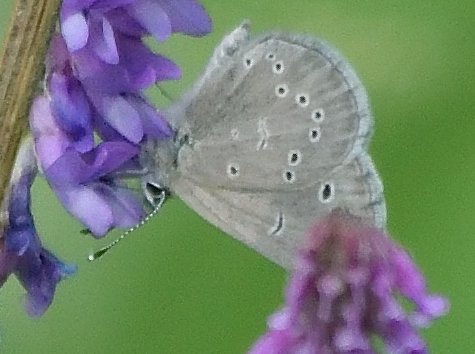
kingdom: Animalia
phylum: Arthropoda
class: Insecta
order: Lepidoptera
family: Lycaenidae
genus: Glaucopsyche
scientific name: Glaucopsyche lygdamus
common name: Silvery Blue
